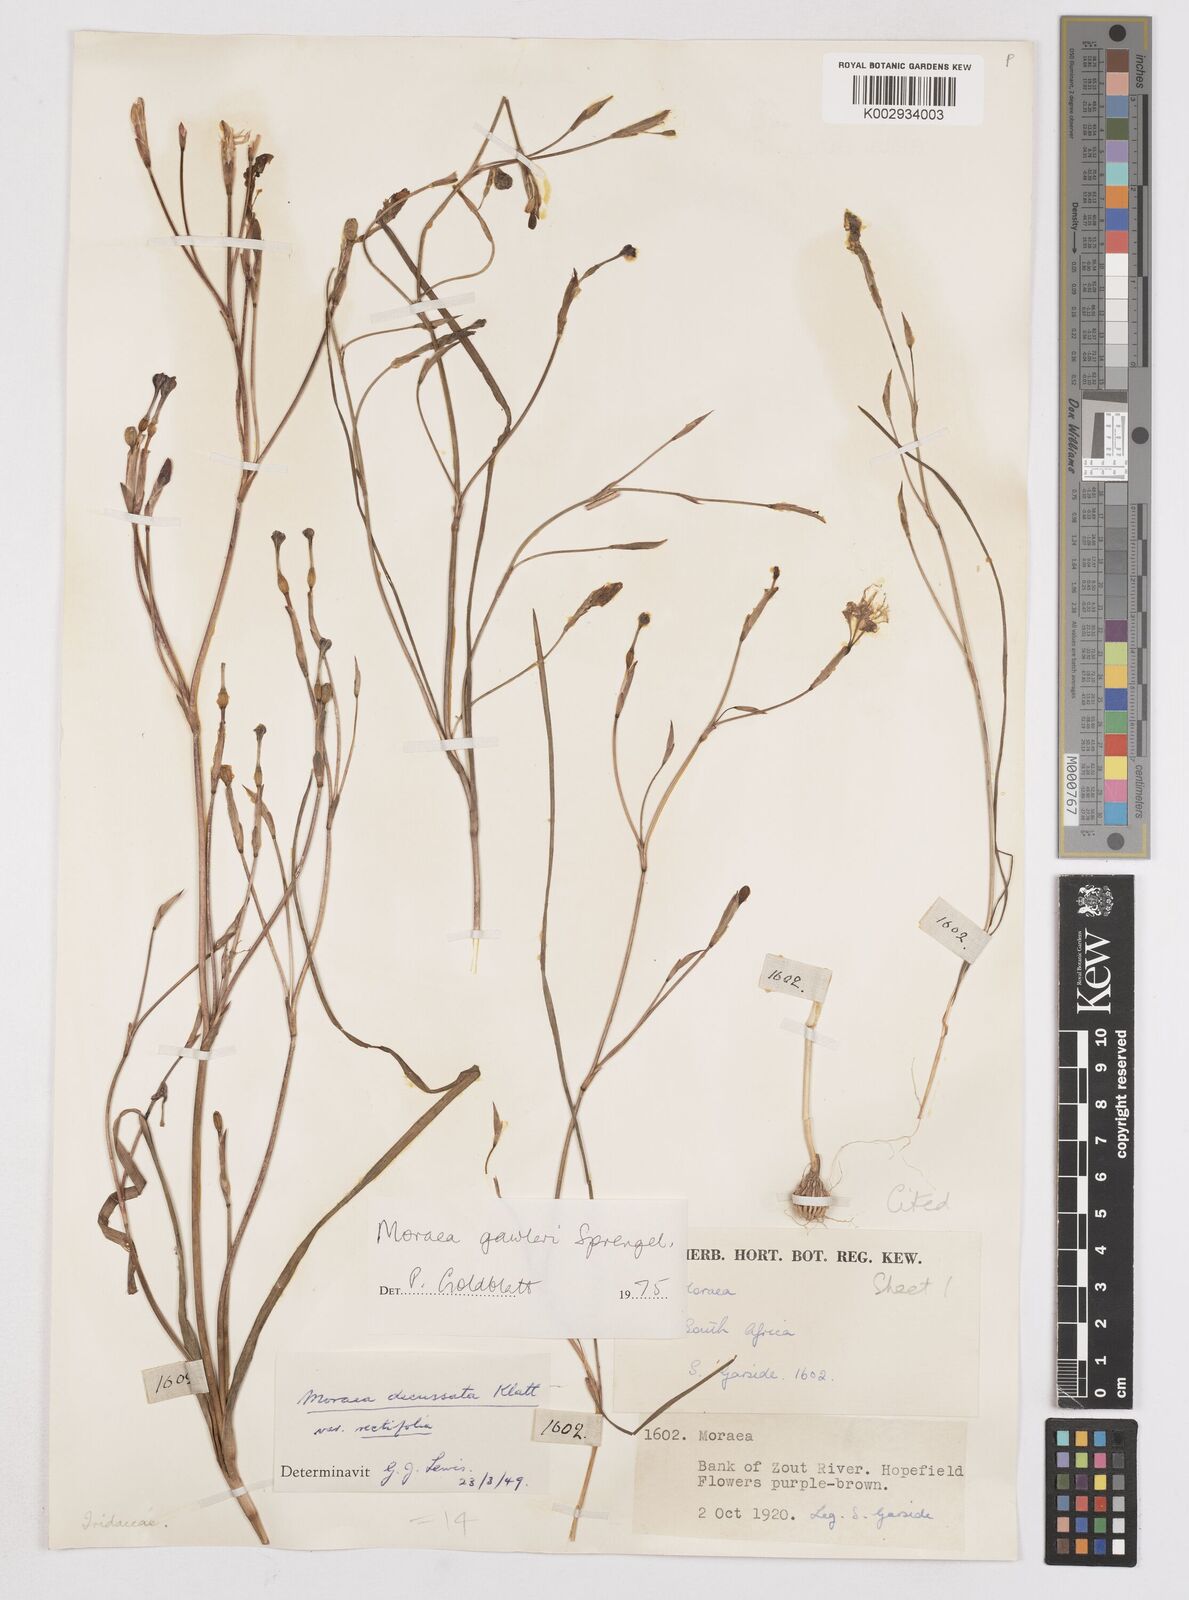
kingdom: Plantae
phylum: Tracheophyta
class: Liliopsida
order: Asparagales
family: Iridaceae
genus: Moraea
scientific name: Moraea gawleri
